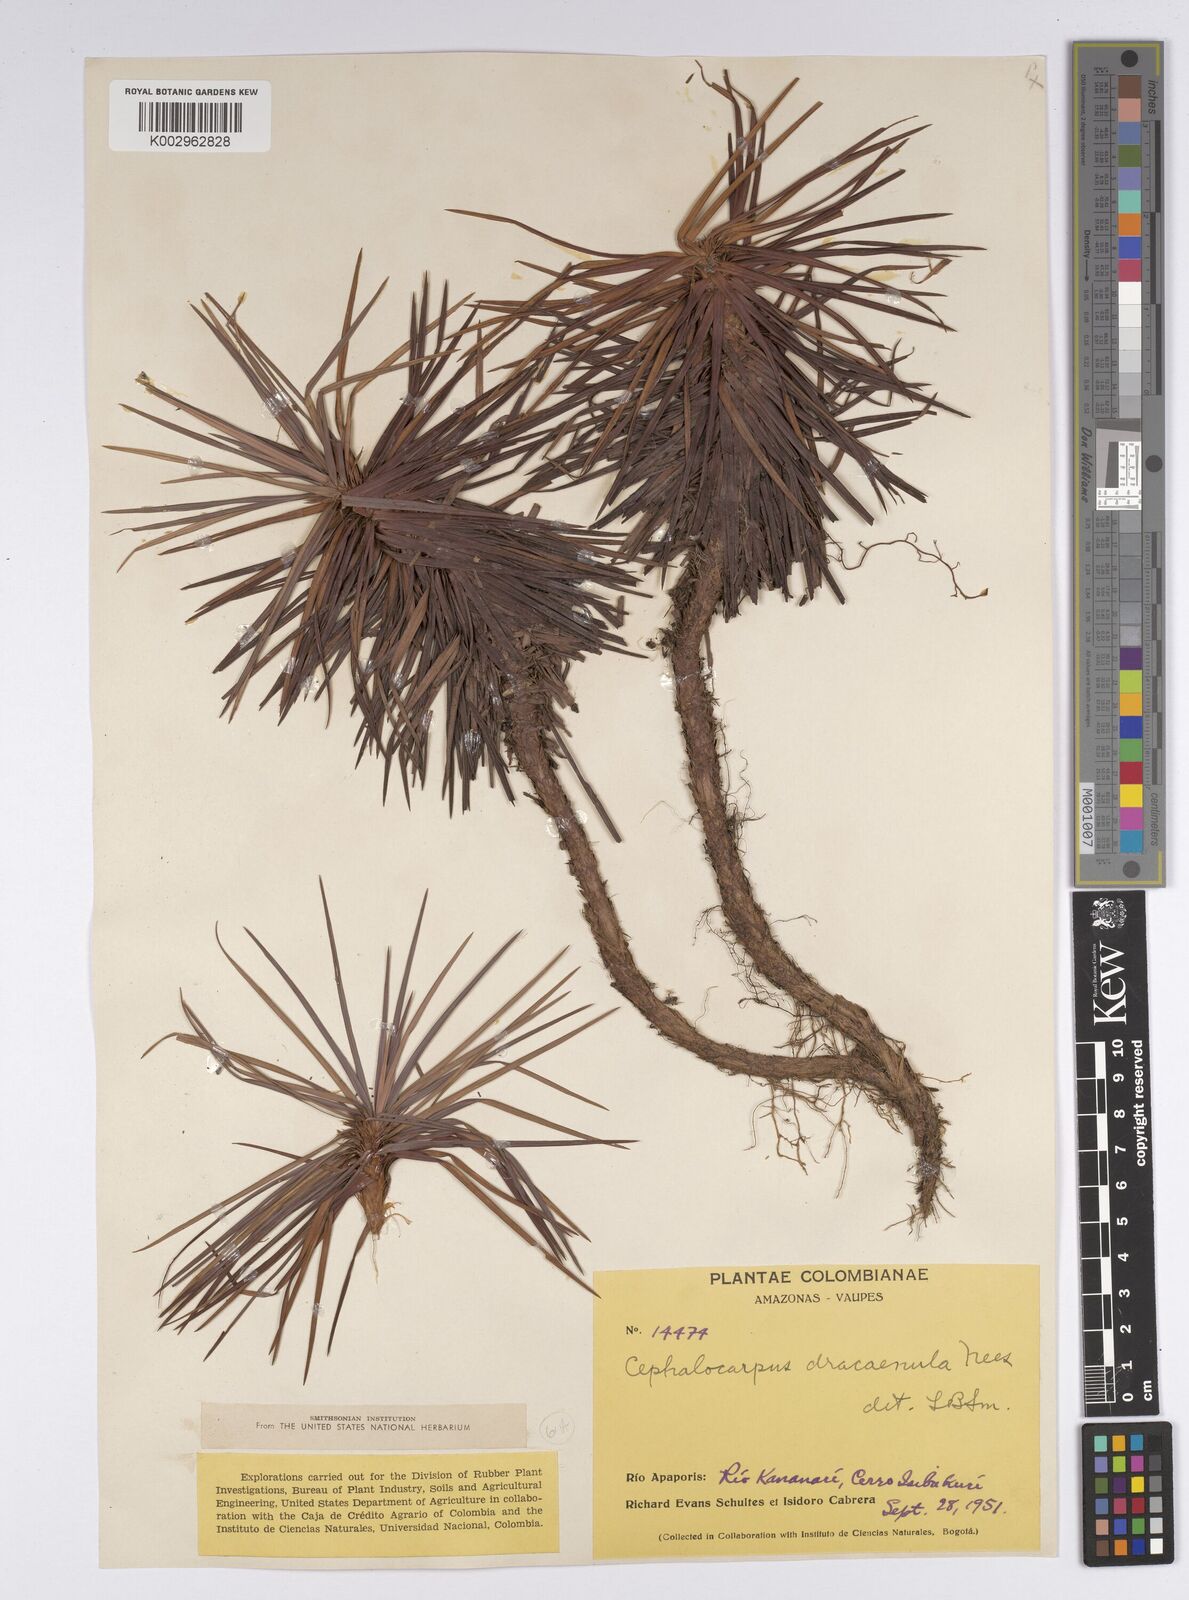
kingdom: Plantae
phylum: Tracheophyta
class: Liliopsida
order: Poales
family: Cyperaceae
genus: Cephalocarpus
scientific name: Cephalocarpus dracaenula
